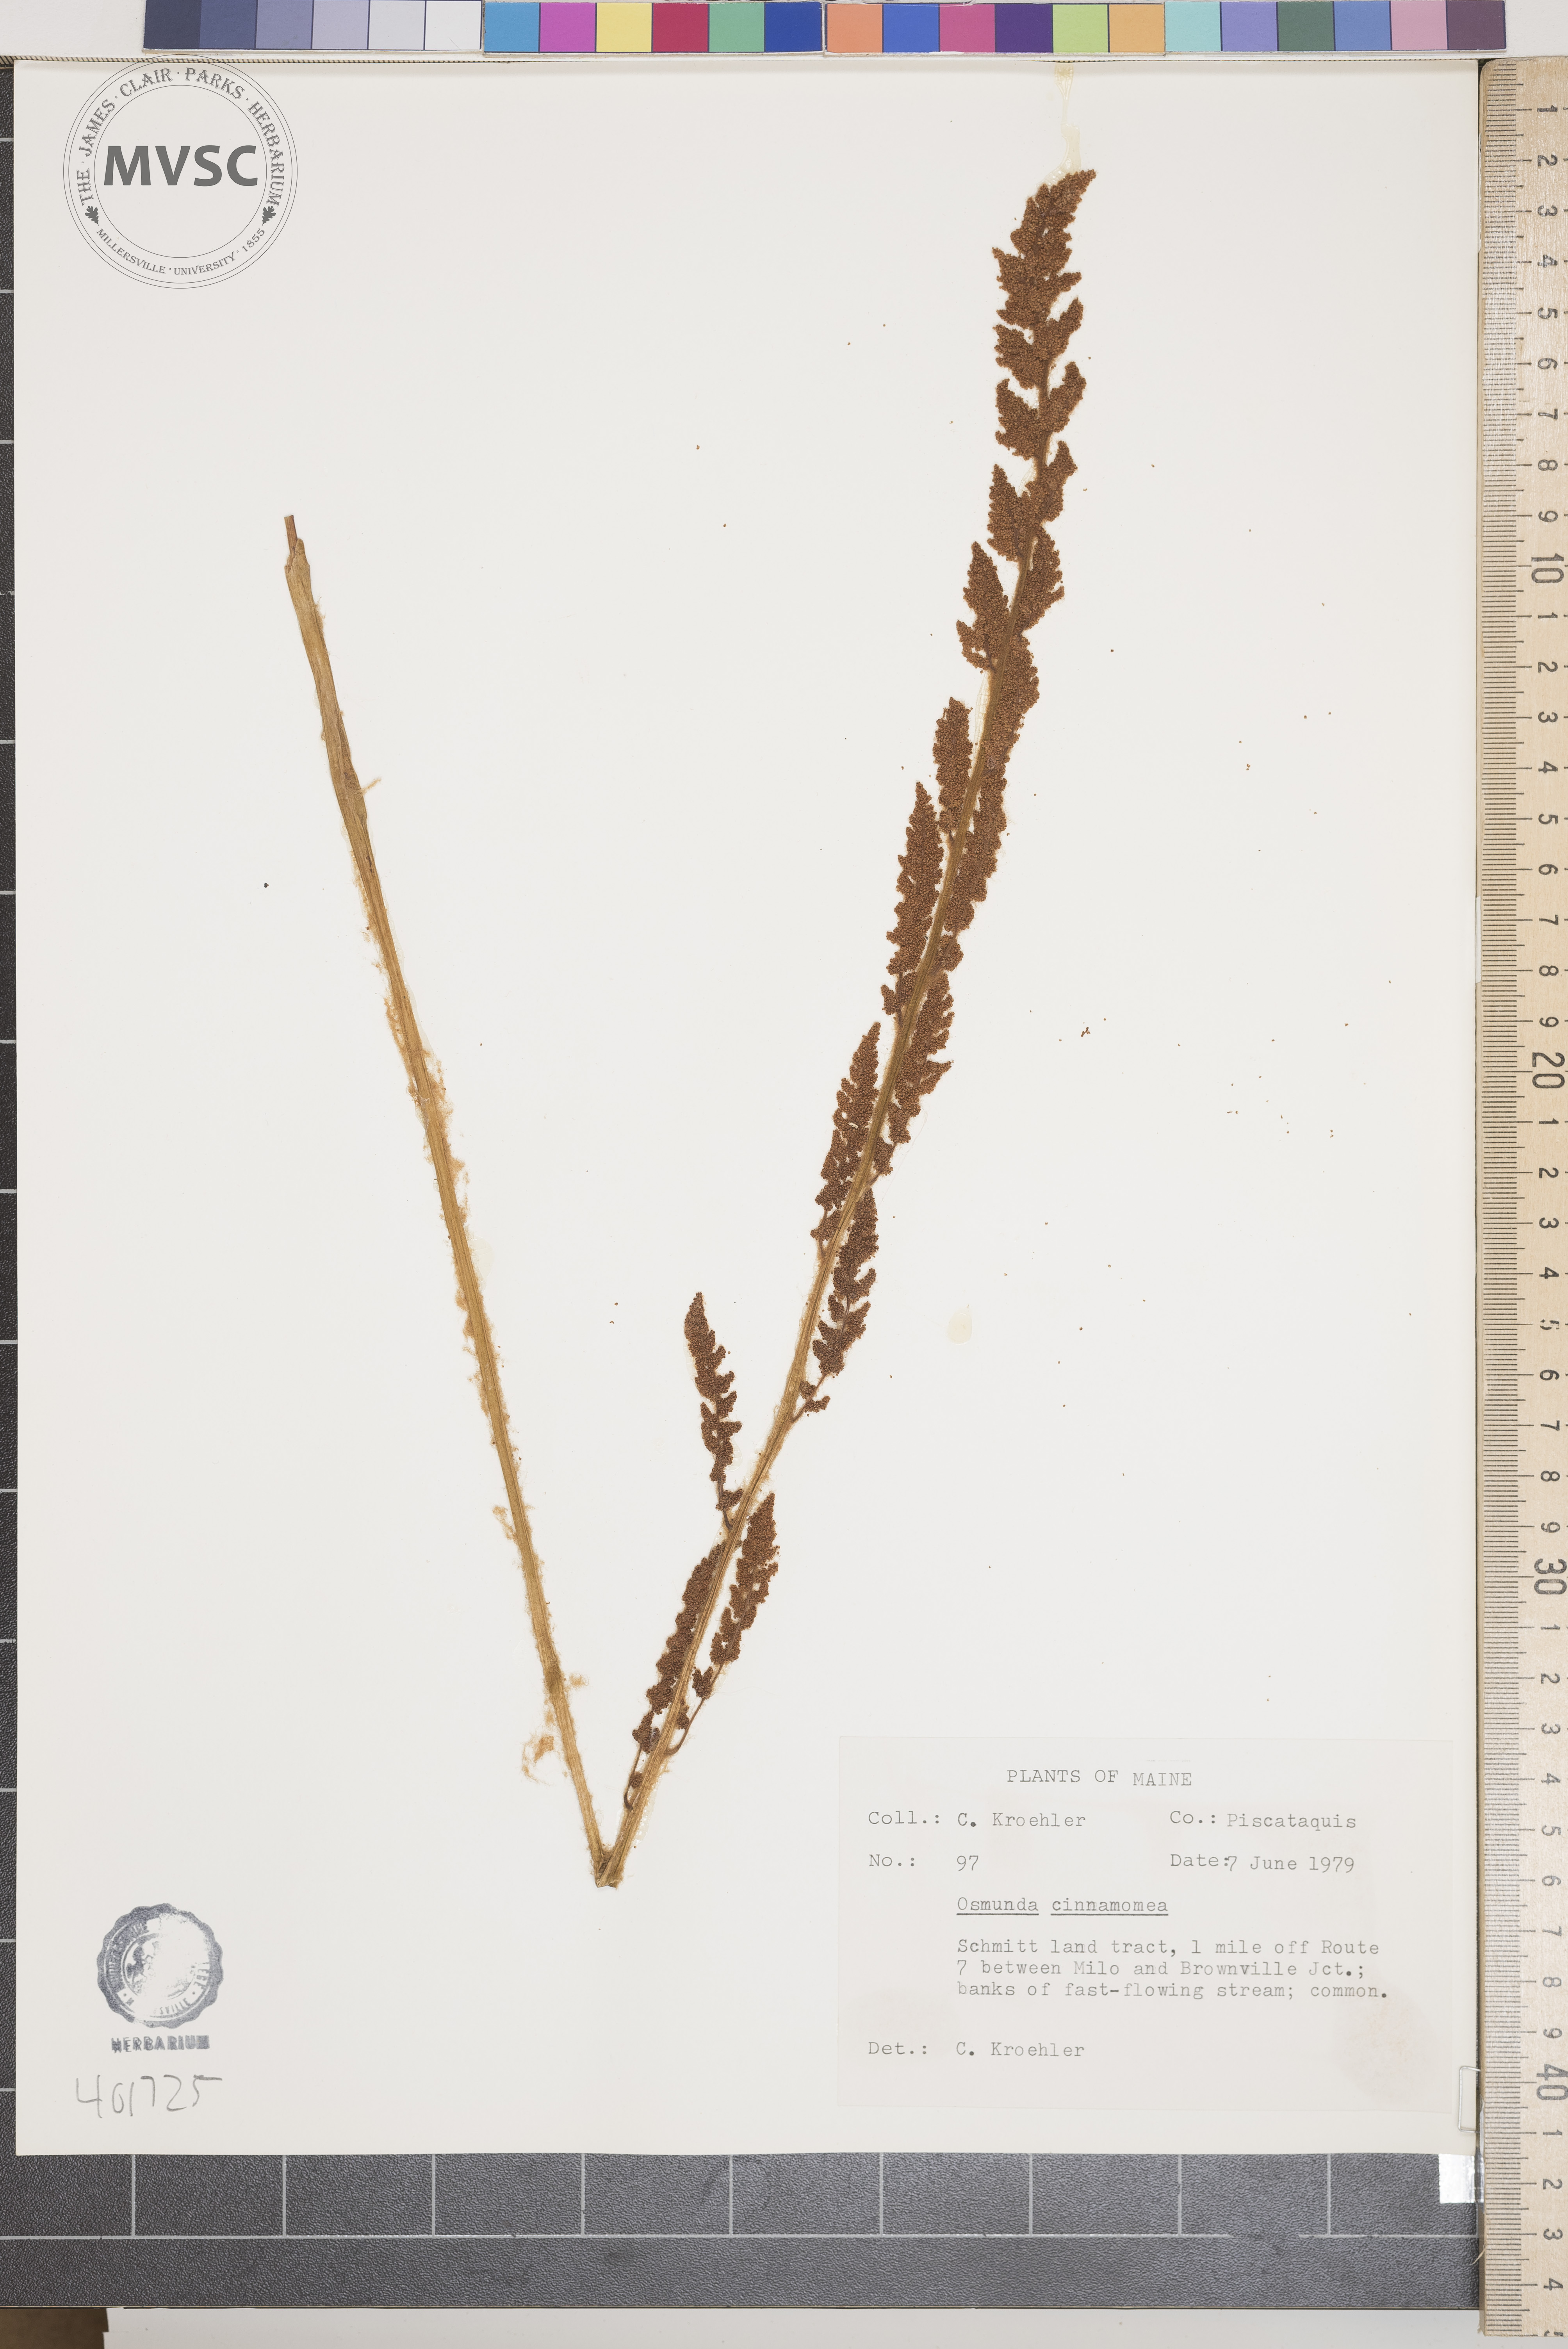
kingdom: Plantae
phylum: Tracheophyta
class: Polypodiopsida
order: Osmundales
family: Osmundaceae
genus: Osmundastrum
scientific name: Osmundastrum cinnamomeum
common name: Cinnamon fern
